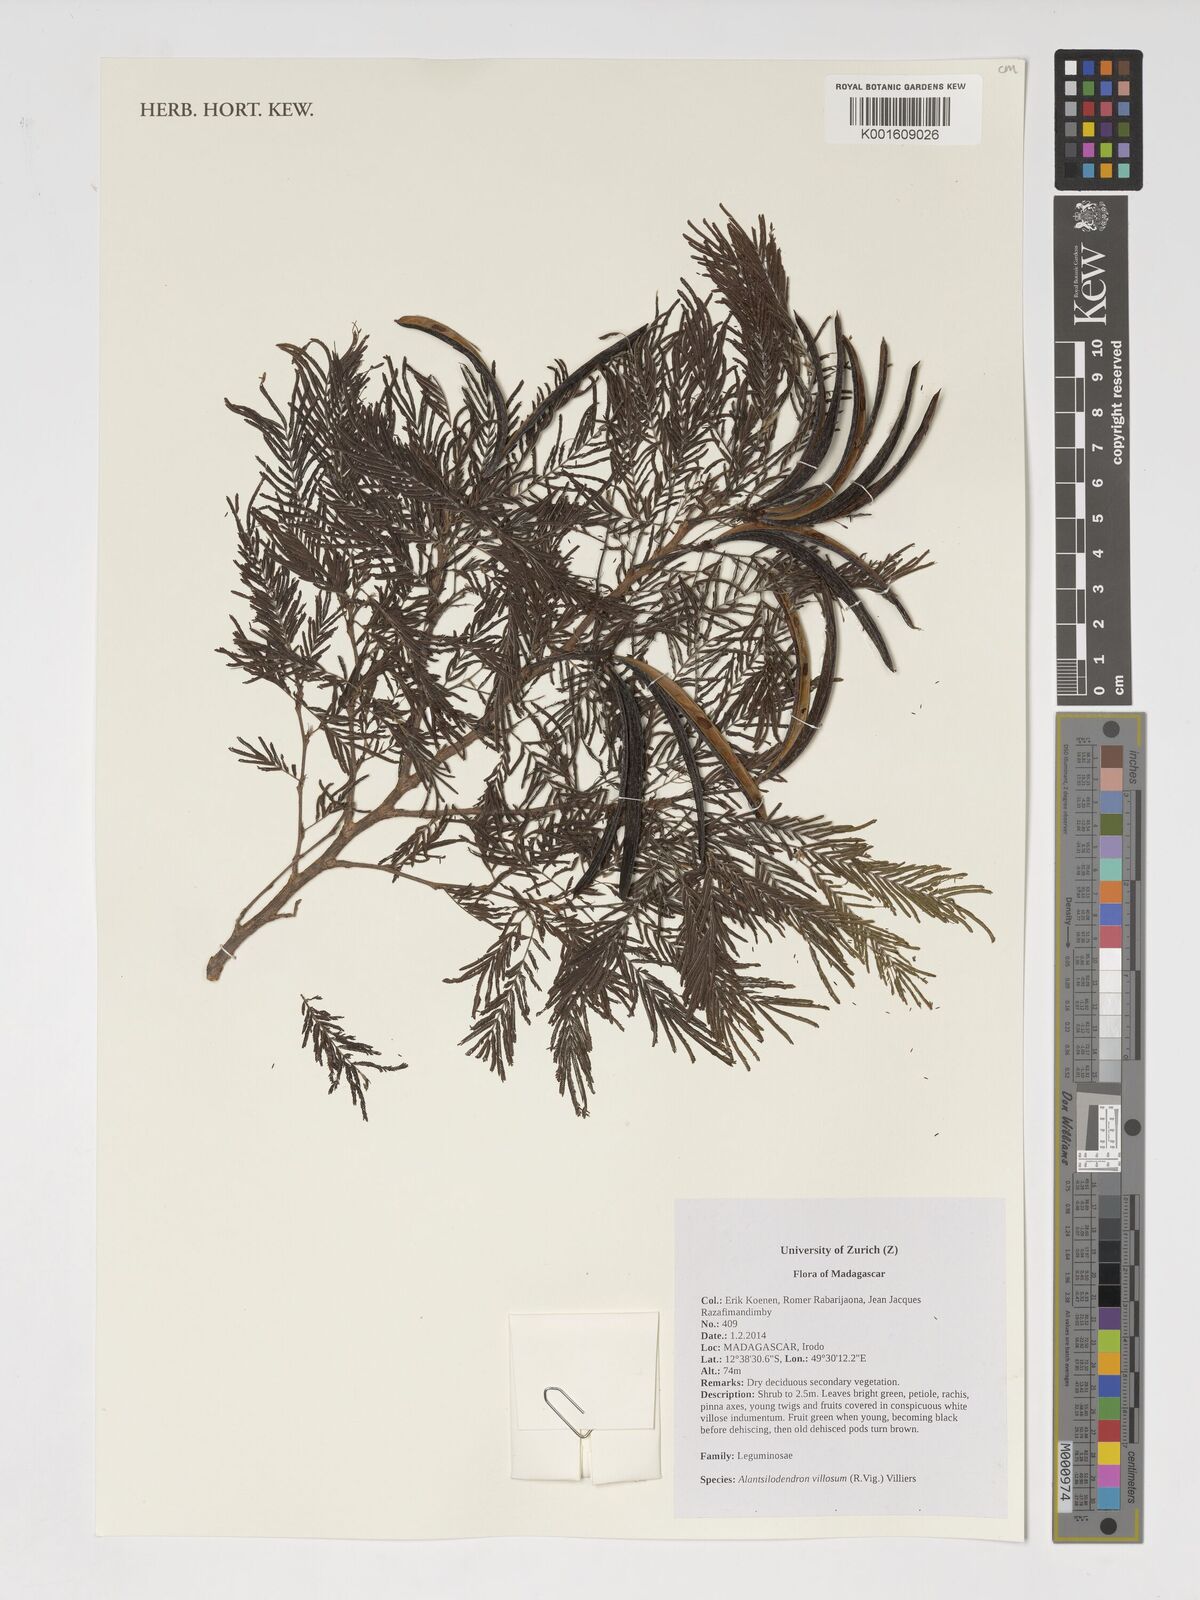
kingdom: Plantae
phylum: Tracheophyta
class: Magnoliopsida
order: Fabales
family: Fabaceae
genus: Alantsilodendron
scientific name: Alantsilodendron villosum
